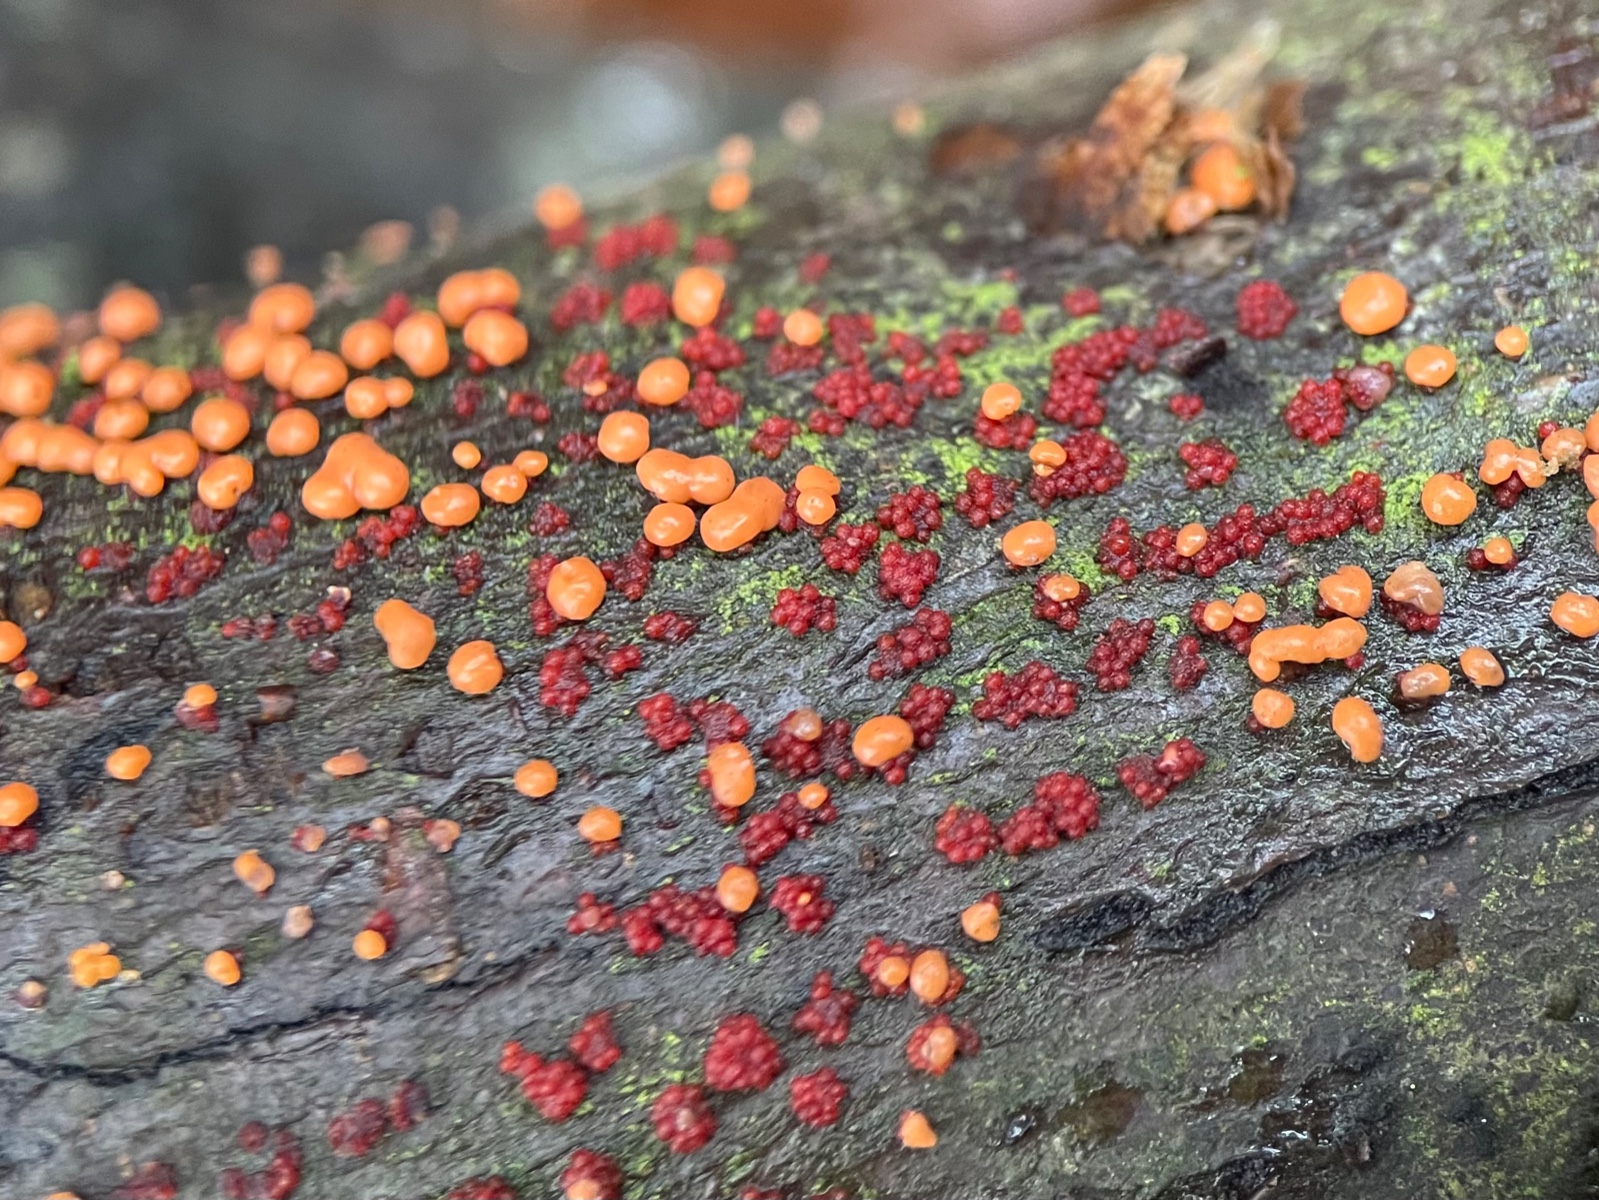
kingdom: Fungi
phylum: Ascomycota
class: Sordariomycetes
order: Hypocreales
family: Nectriaceae
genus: Nectria
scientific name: Nectria cinnabarina
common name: almindelig cinnobersvamp
